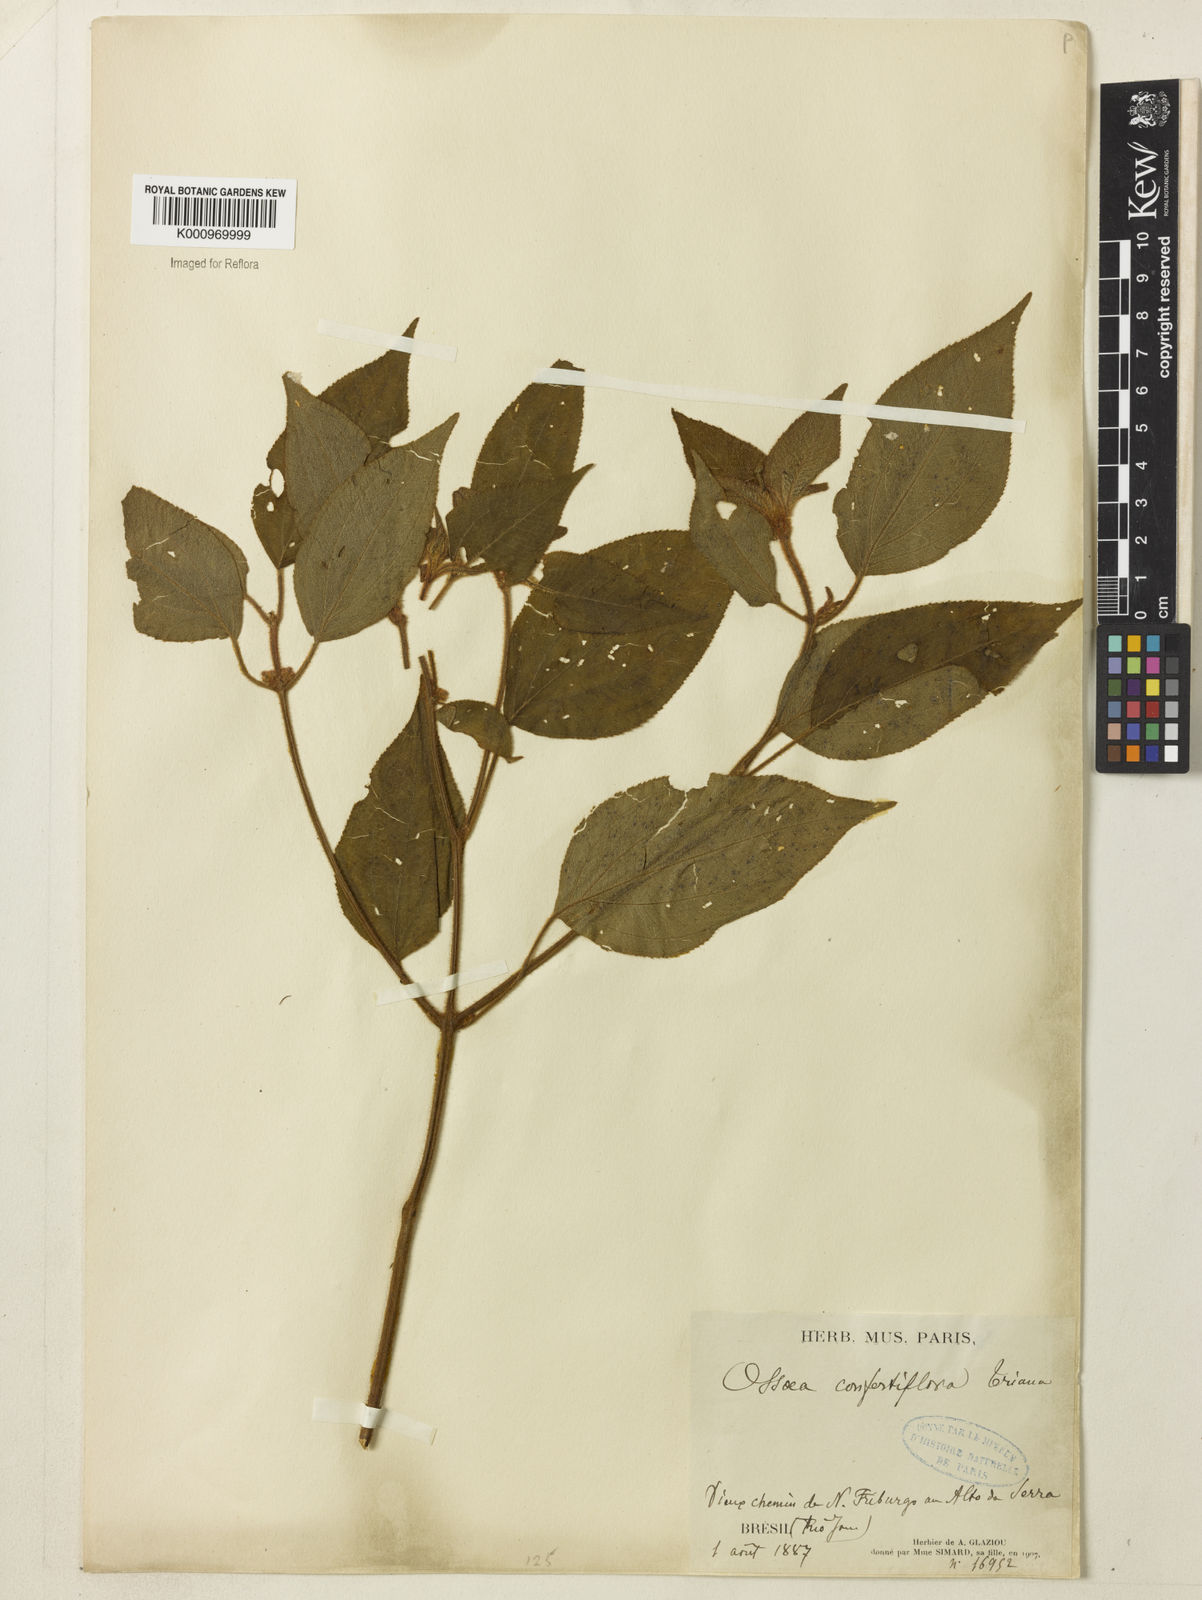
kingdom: Plantae
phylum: Tracheophyta
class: Magnoliopsida
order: Myrtales
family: Melastomataceae
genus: Miconia
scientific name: Miconia rubella
